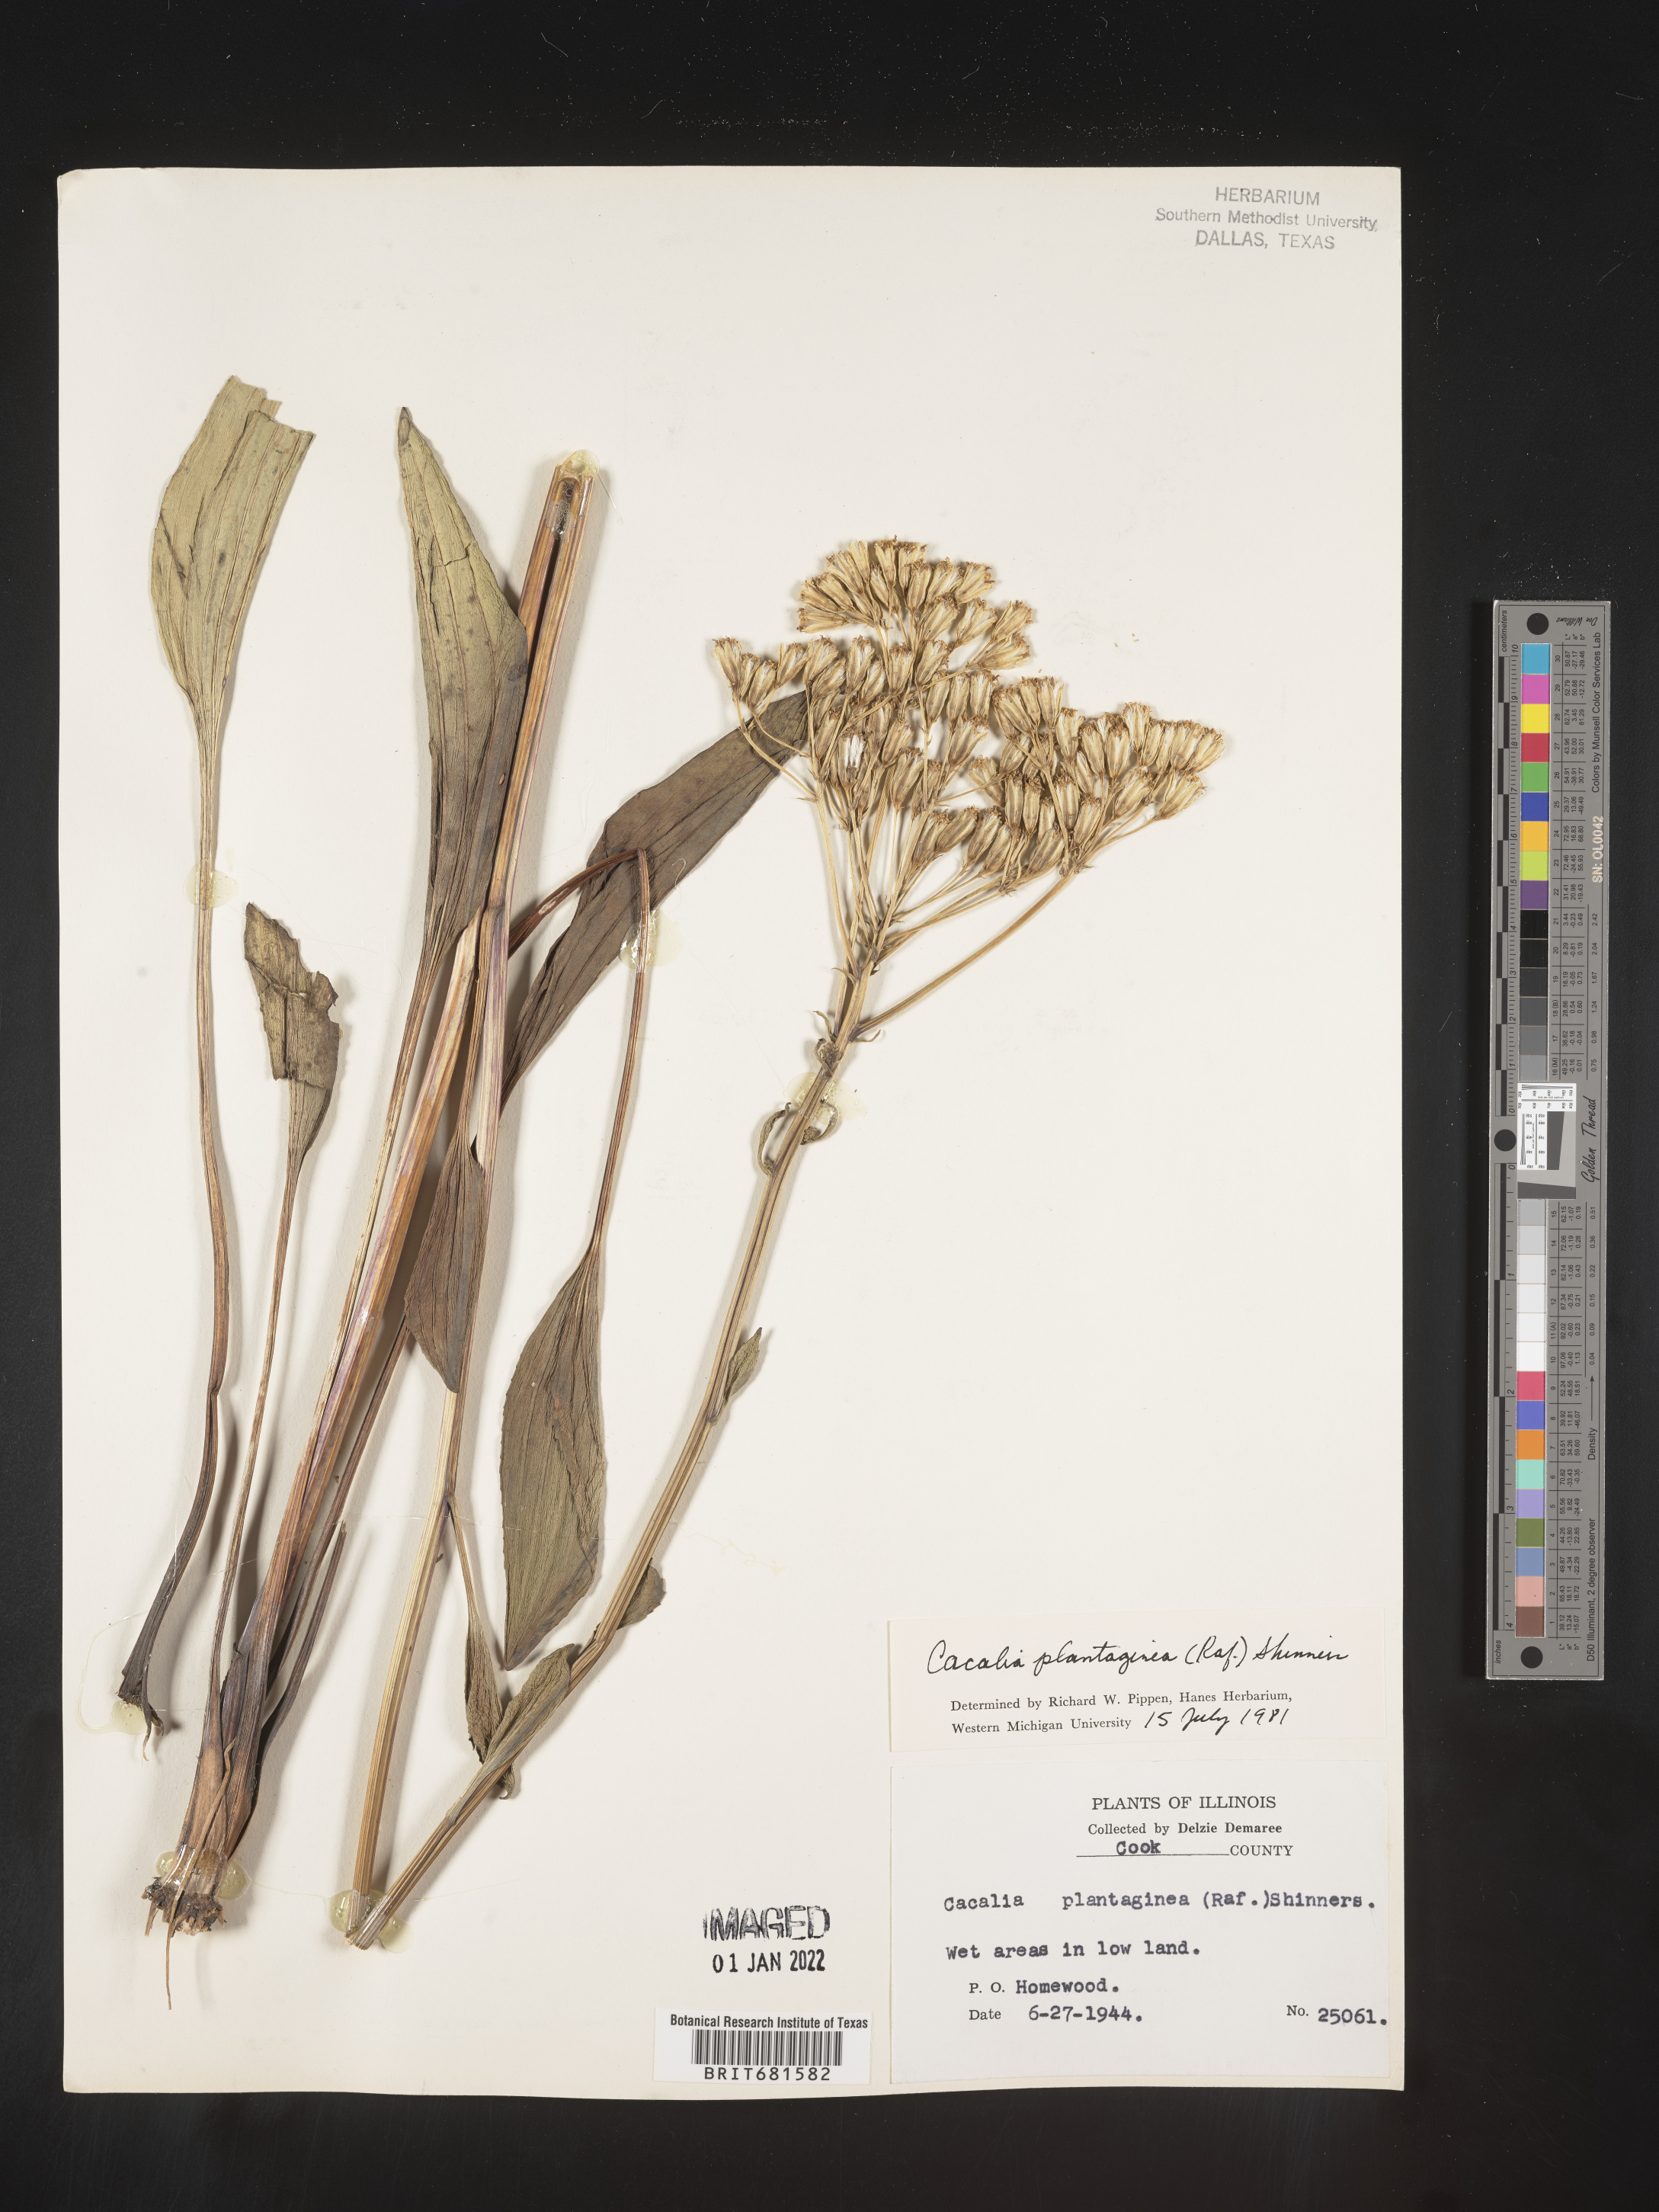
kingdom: Plantae
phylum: Tracheophyta
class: Magnoliopsida
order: Asterales
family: Asteraceae
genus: Arnoglossum
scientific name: Arnoglossum plantagineum
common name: Groove-stemmed indian-plantain
